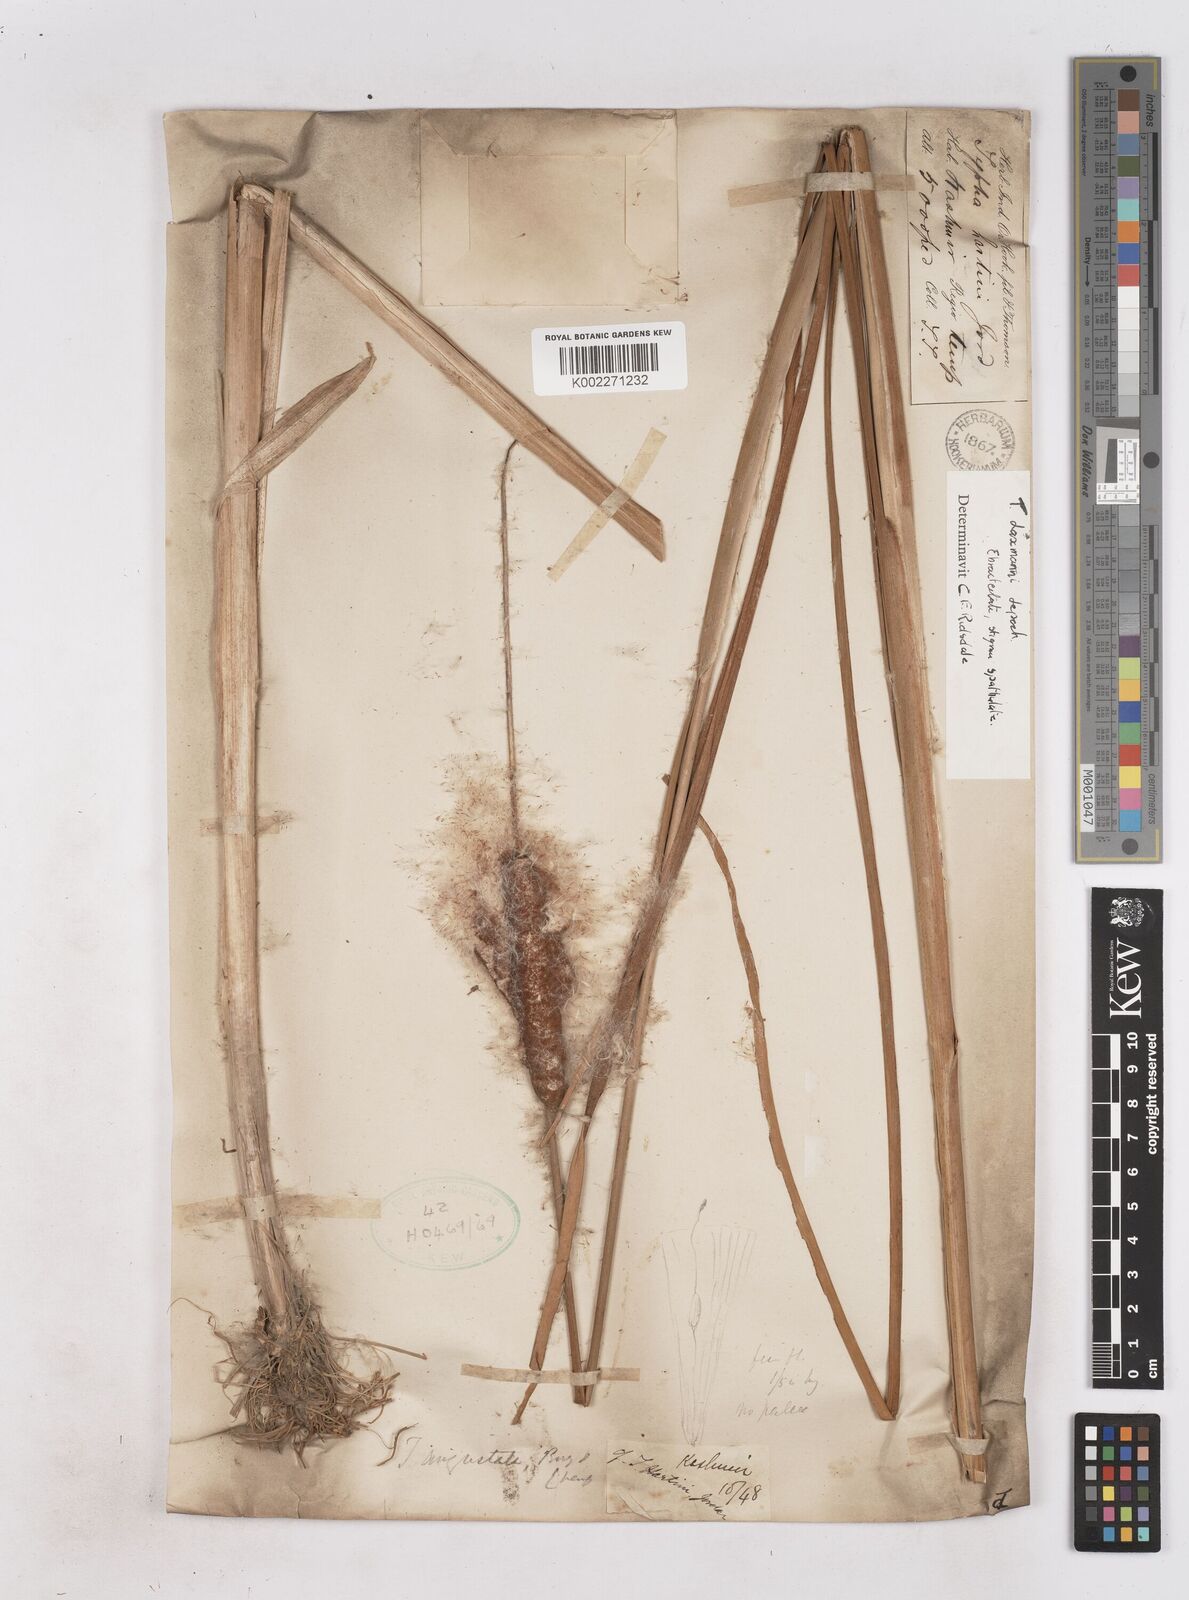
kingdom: Plantae
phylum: Tracheophyta
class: Liliopsida
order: Poales
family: Typhaceae
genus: Typha
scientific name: Typha laxmannii
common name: Laxman’s bulrush
